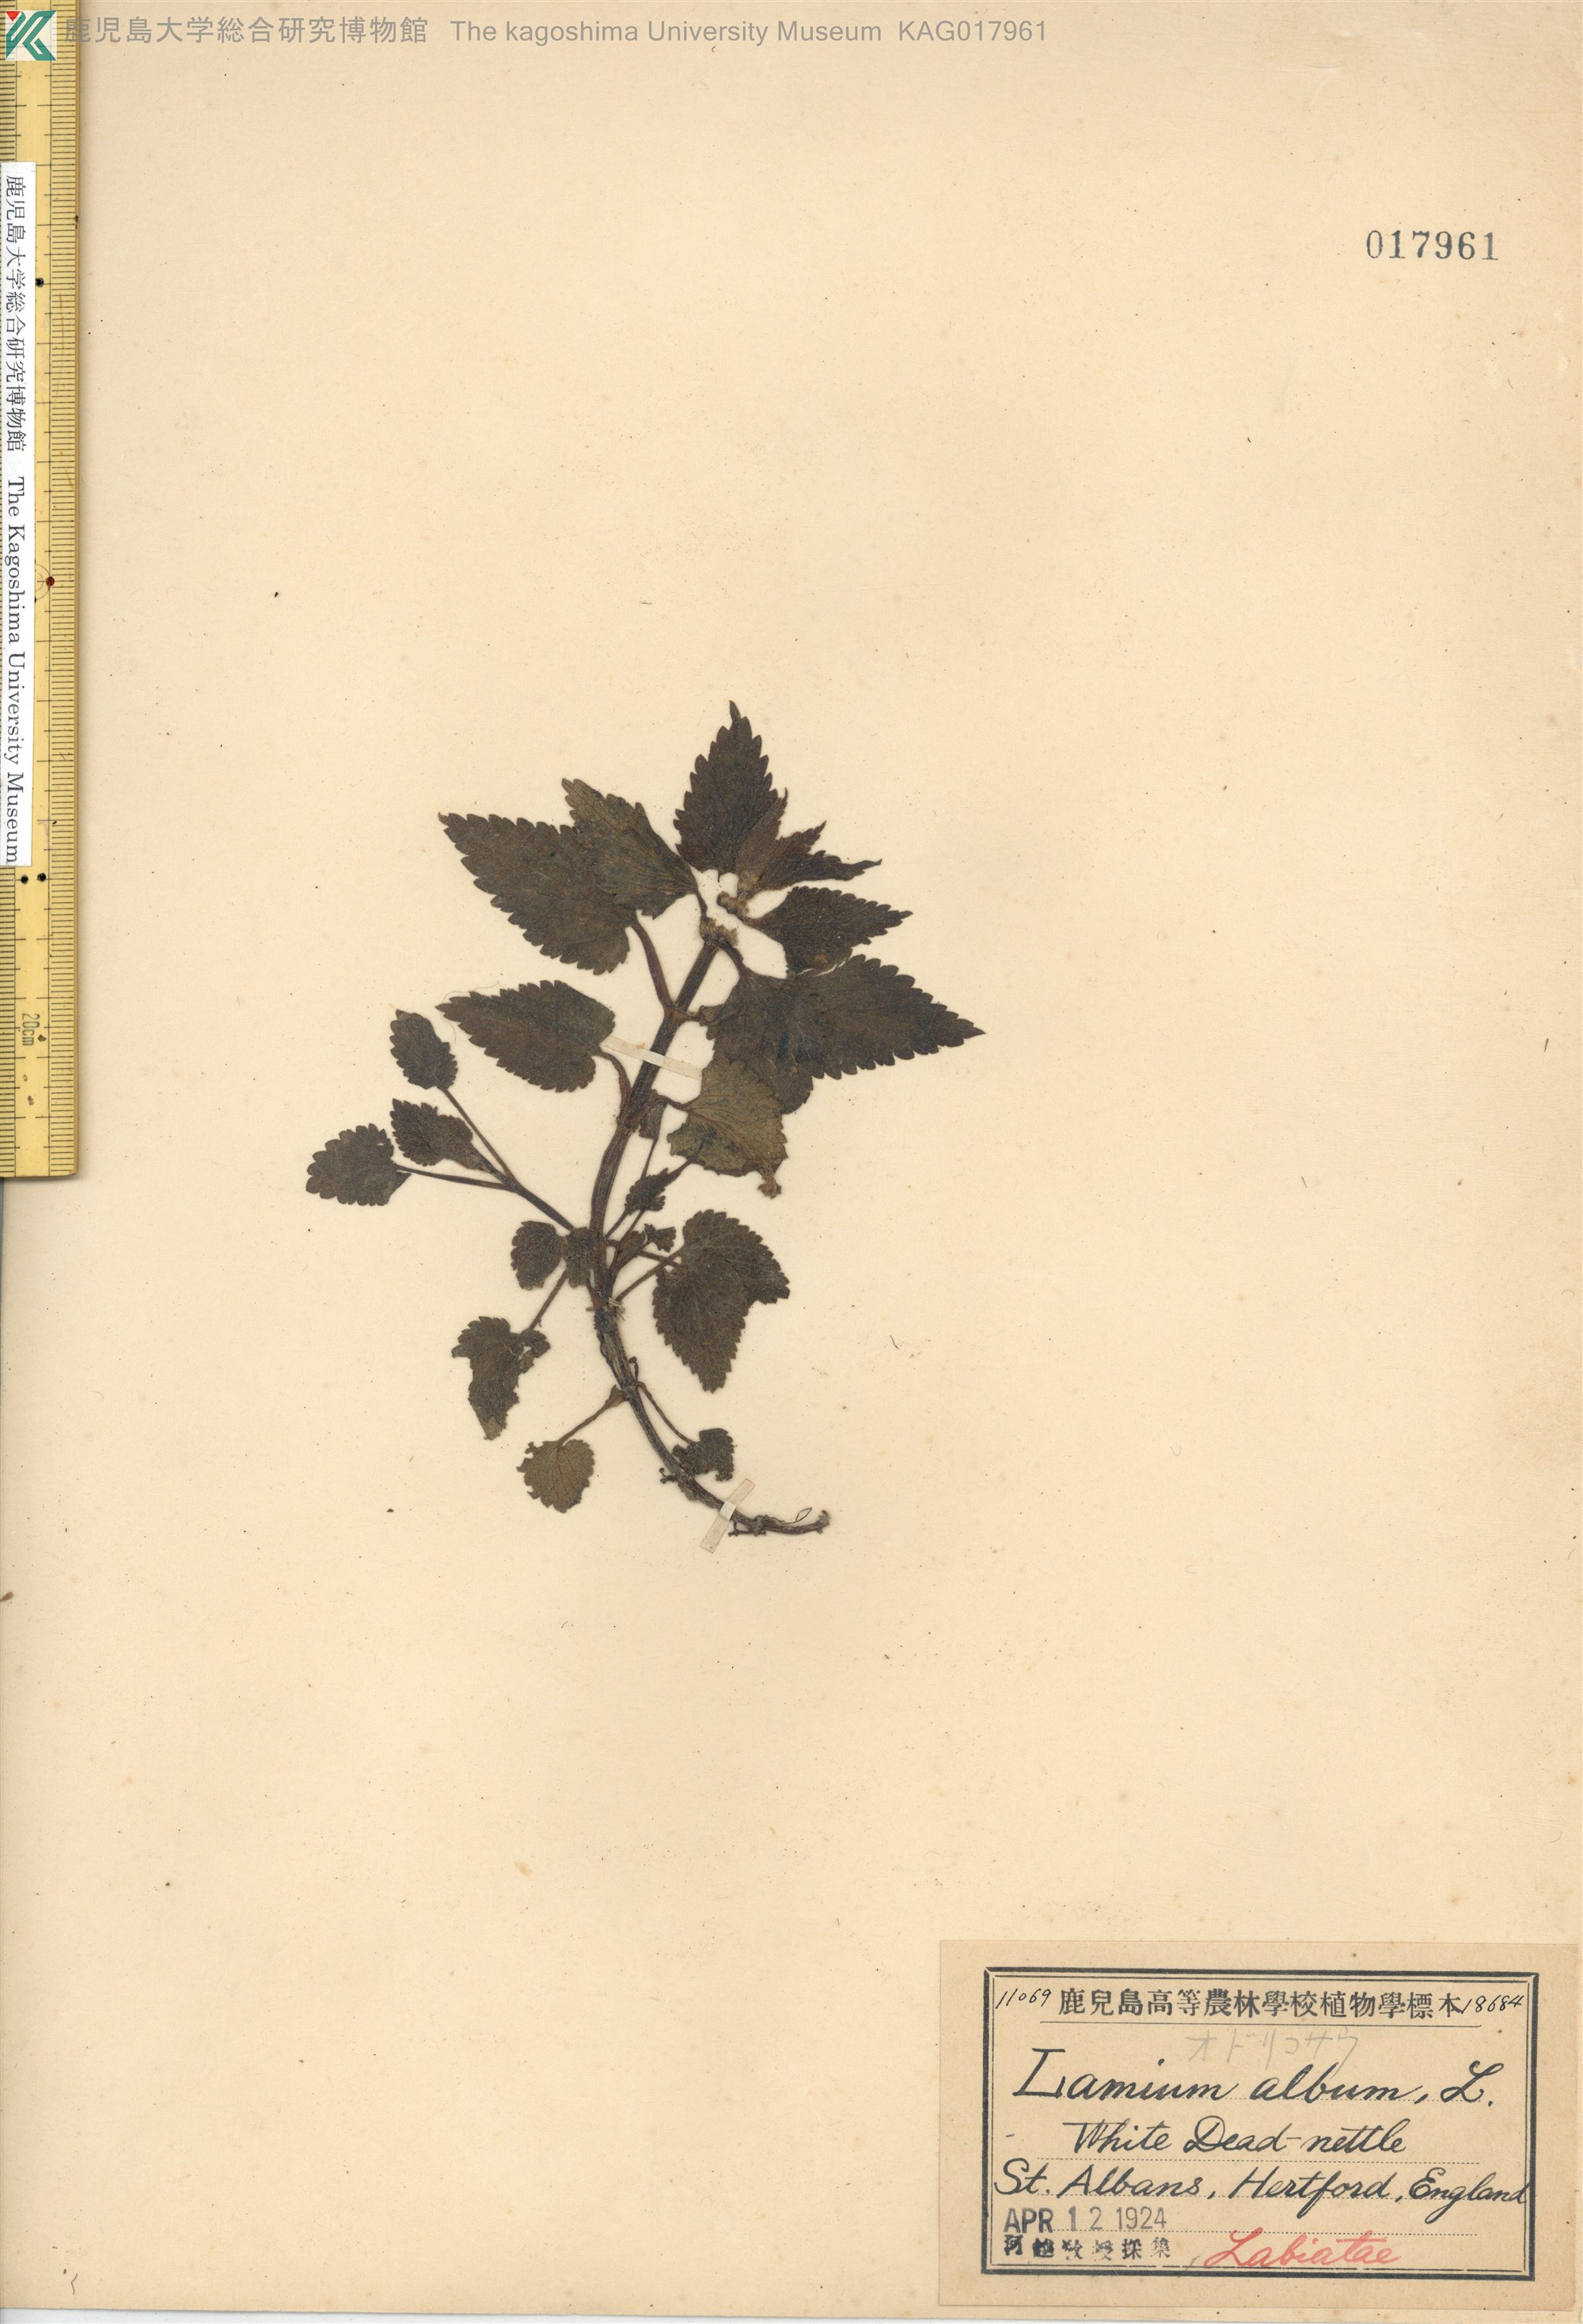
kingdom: Plantae
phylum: Tracheophyta
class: Magnoliopsida
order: Lamiales
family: Lamiaceae
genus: Lamium
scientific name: Lamium album
